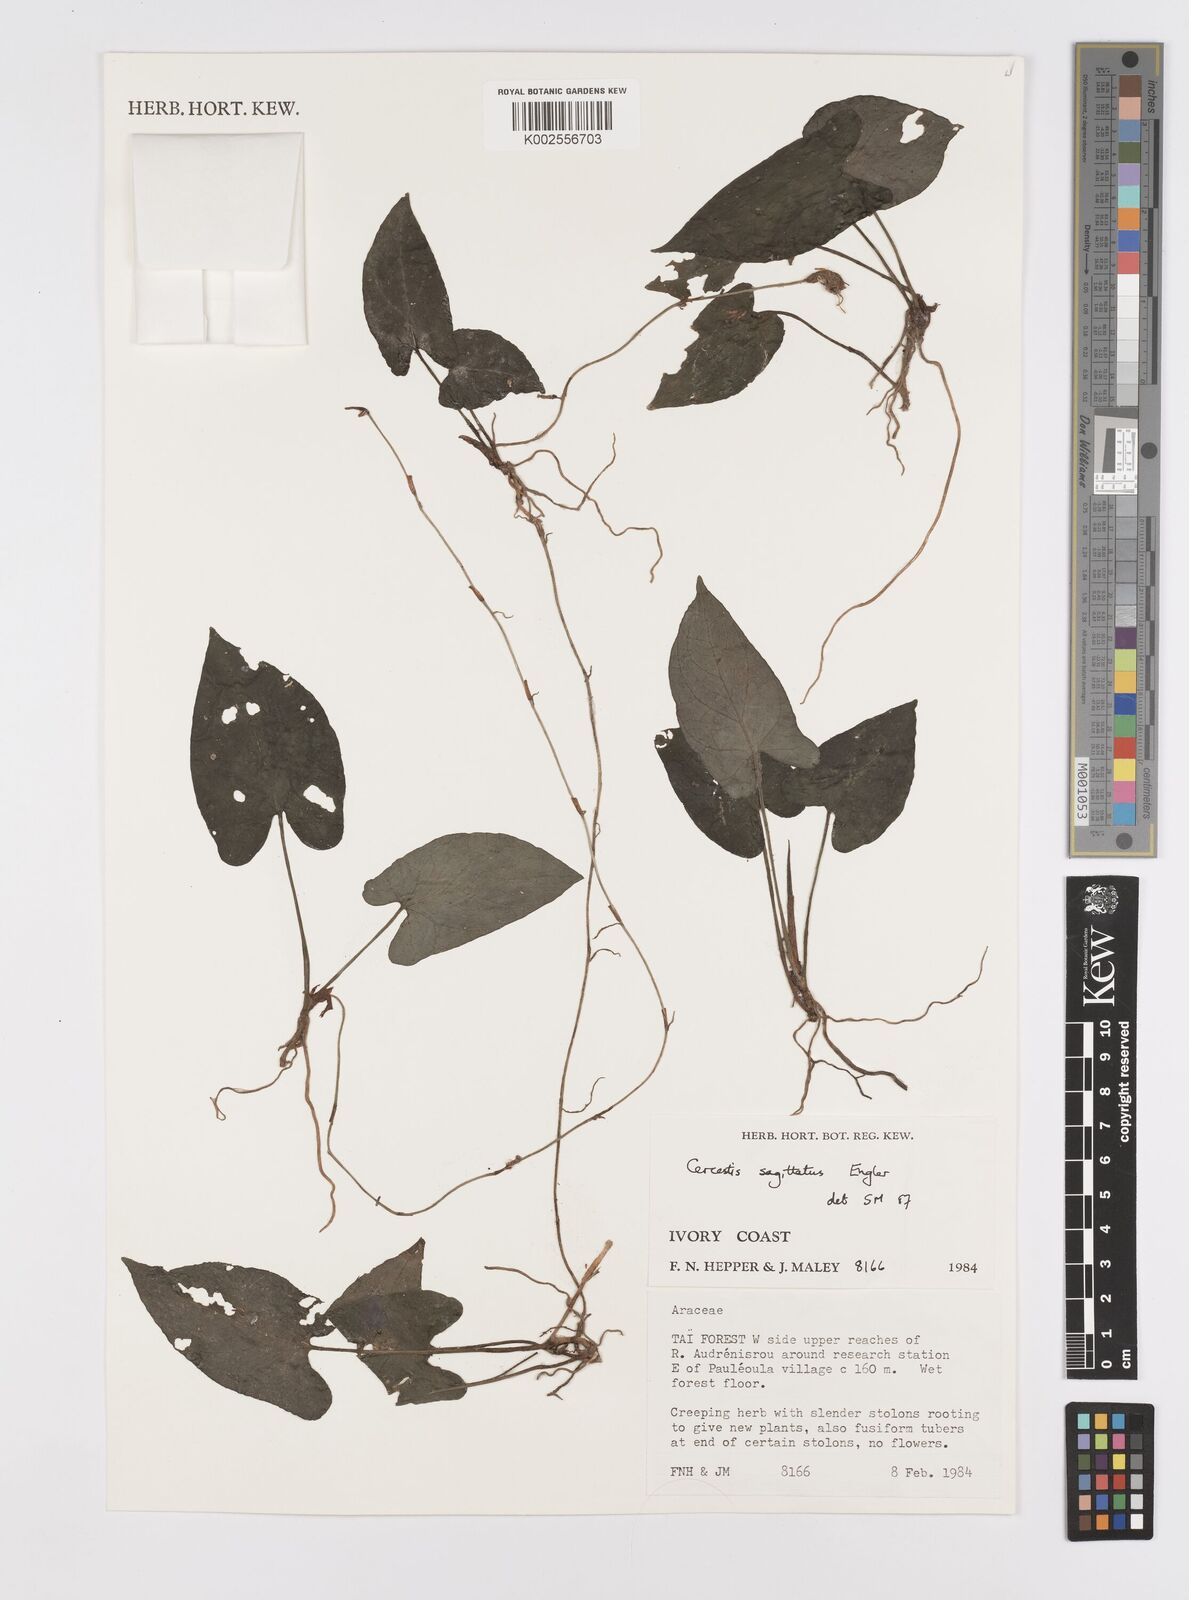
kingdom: Plantae
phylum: Tracheophyta
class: Liliopsida
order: Alismatales
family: Araceae
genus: Cercestis
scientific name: Cercestis dinklagei
